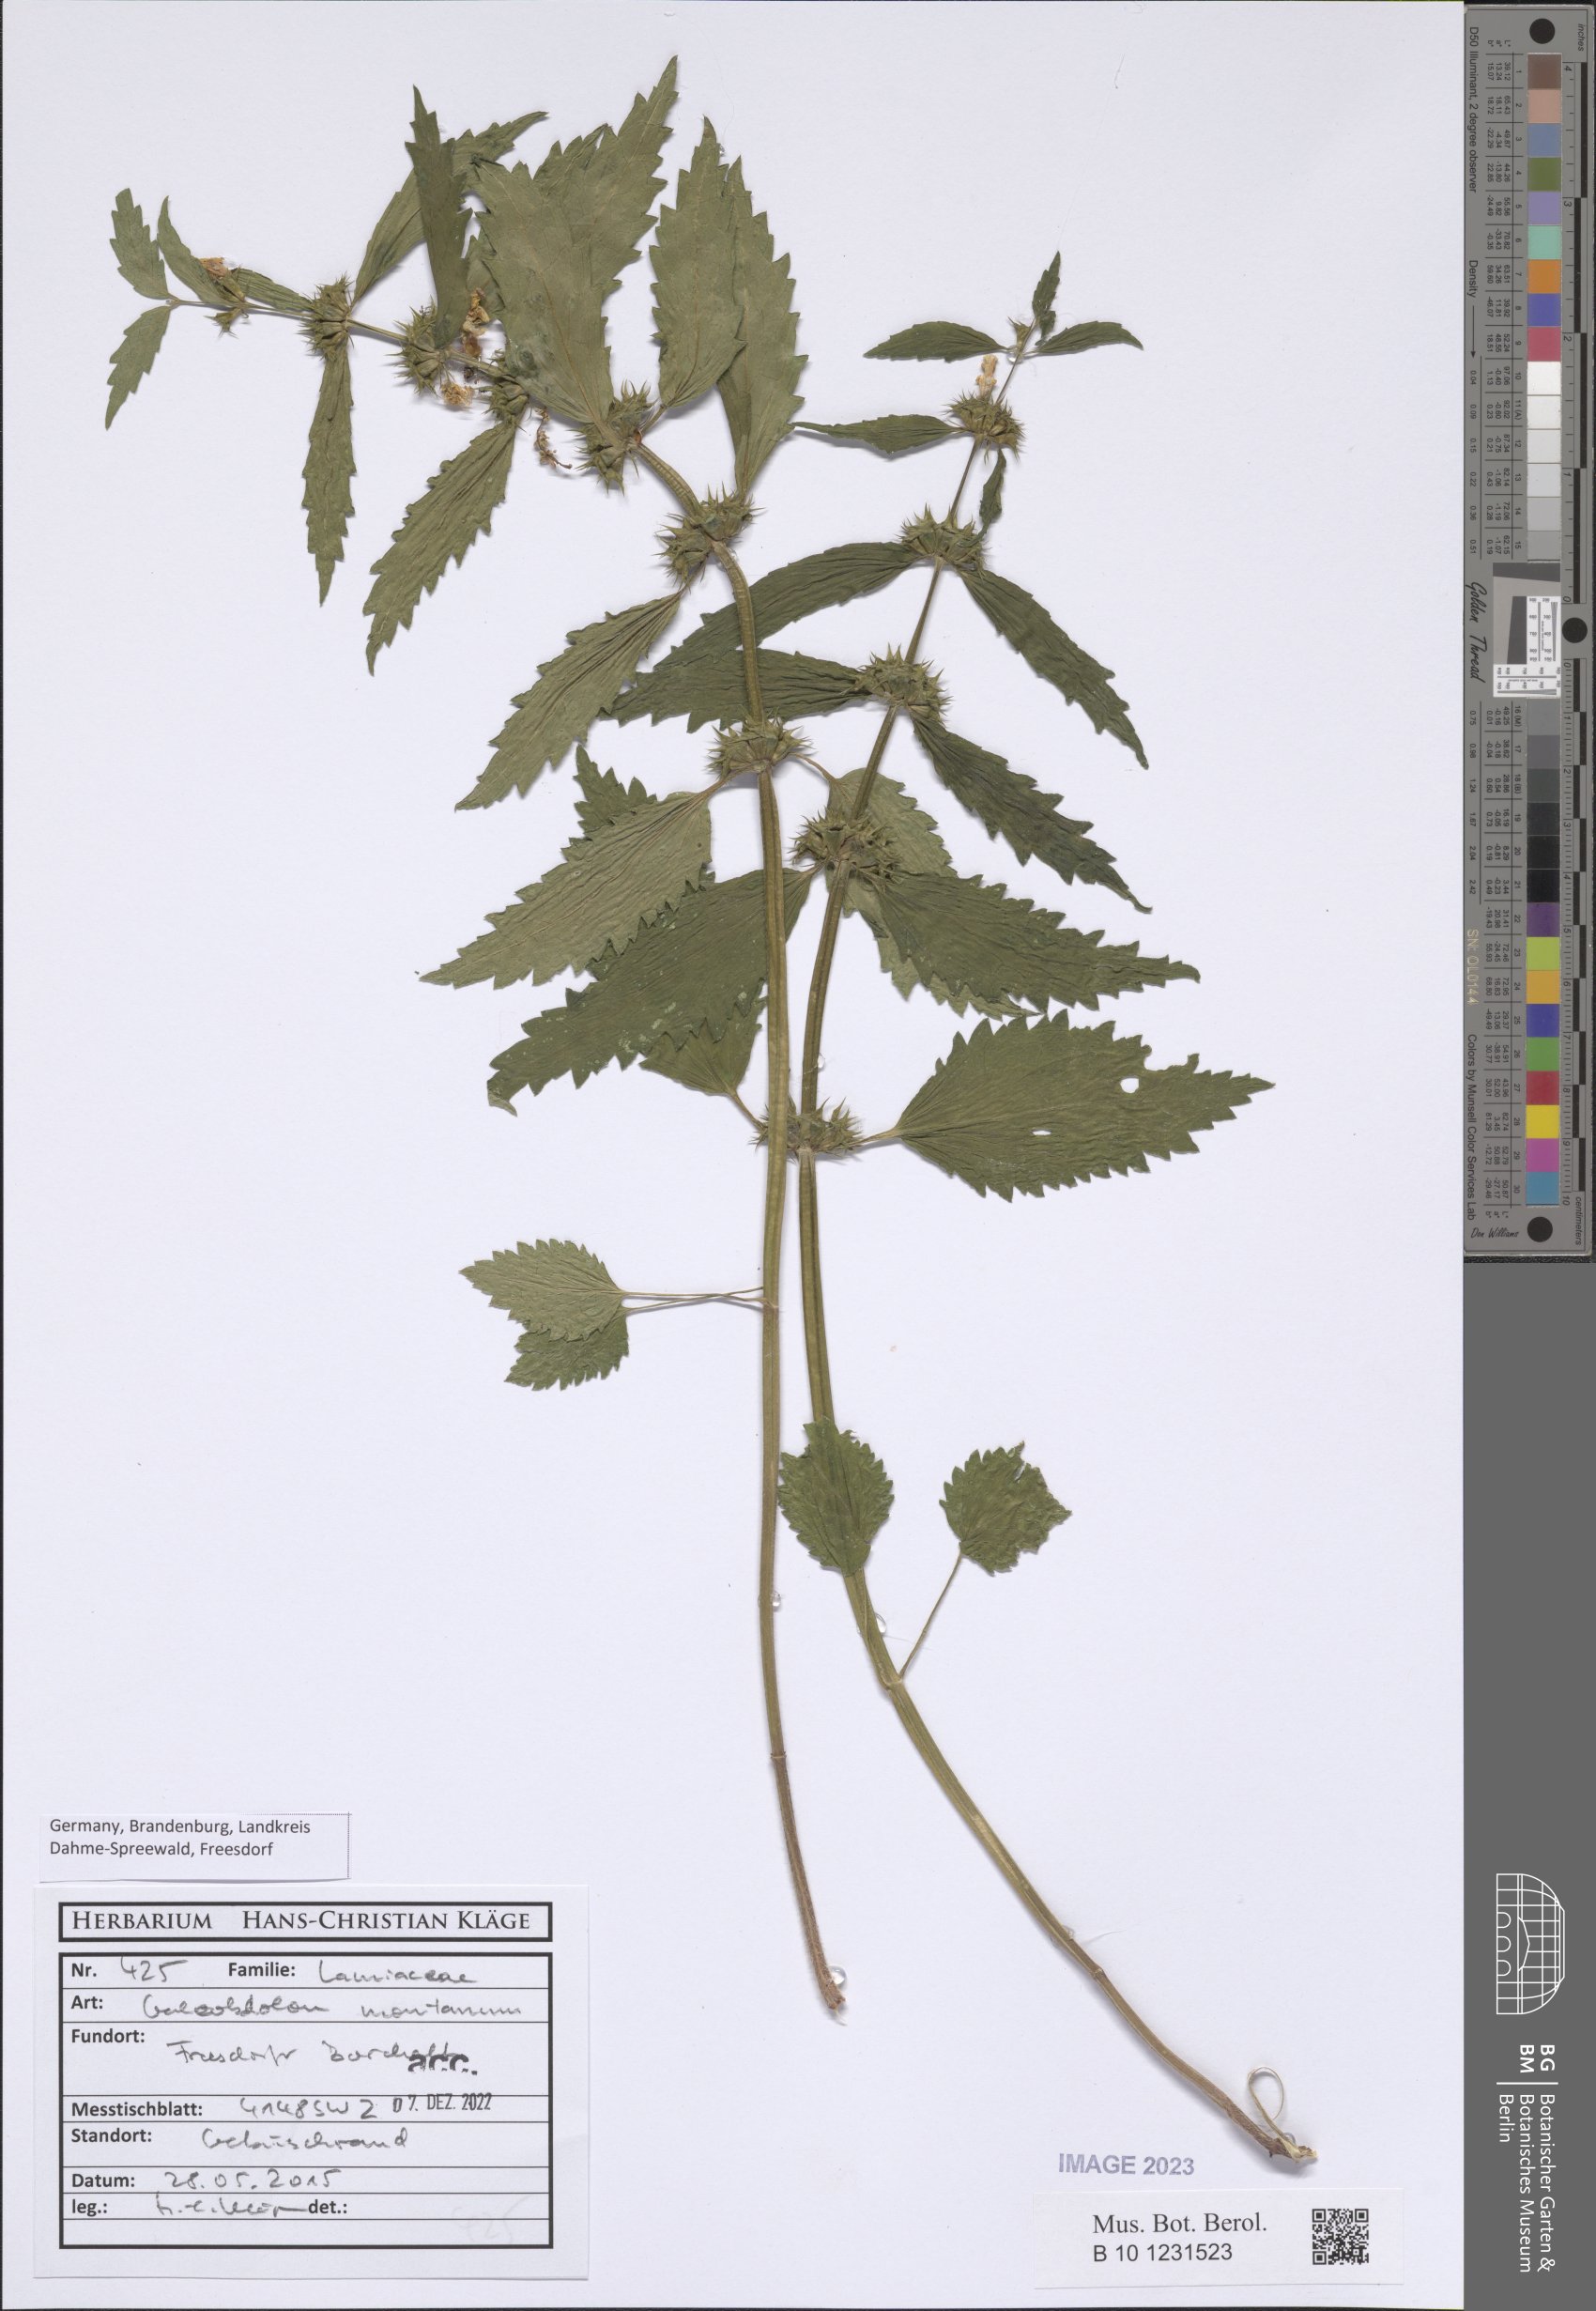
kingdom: Plantae
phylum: Tracheophyta
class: Magnoliopsida
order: Lamiales
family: Lamiaceae
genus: Lamium
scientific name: Lamium galeobdolon
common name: Yellow archangel
